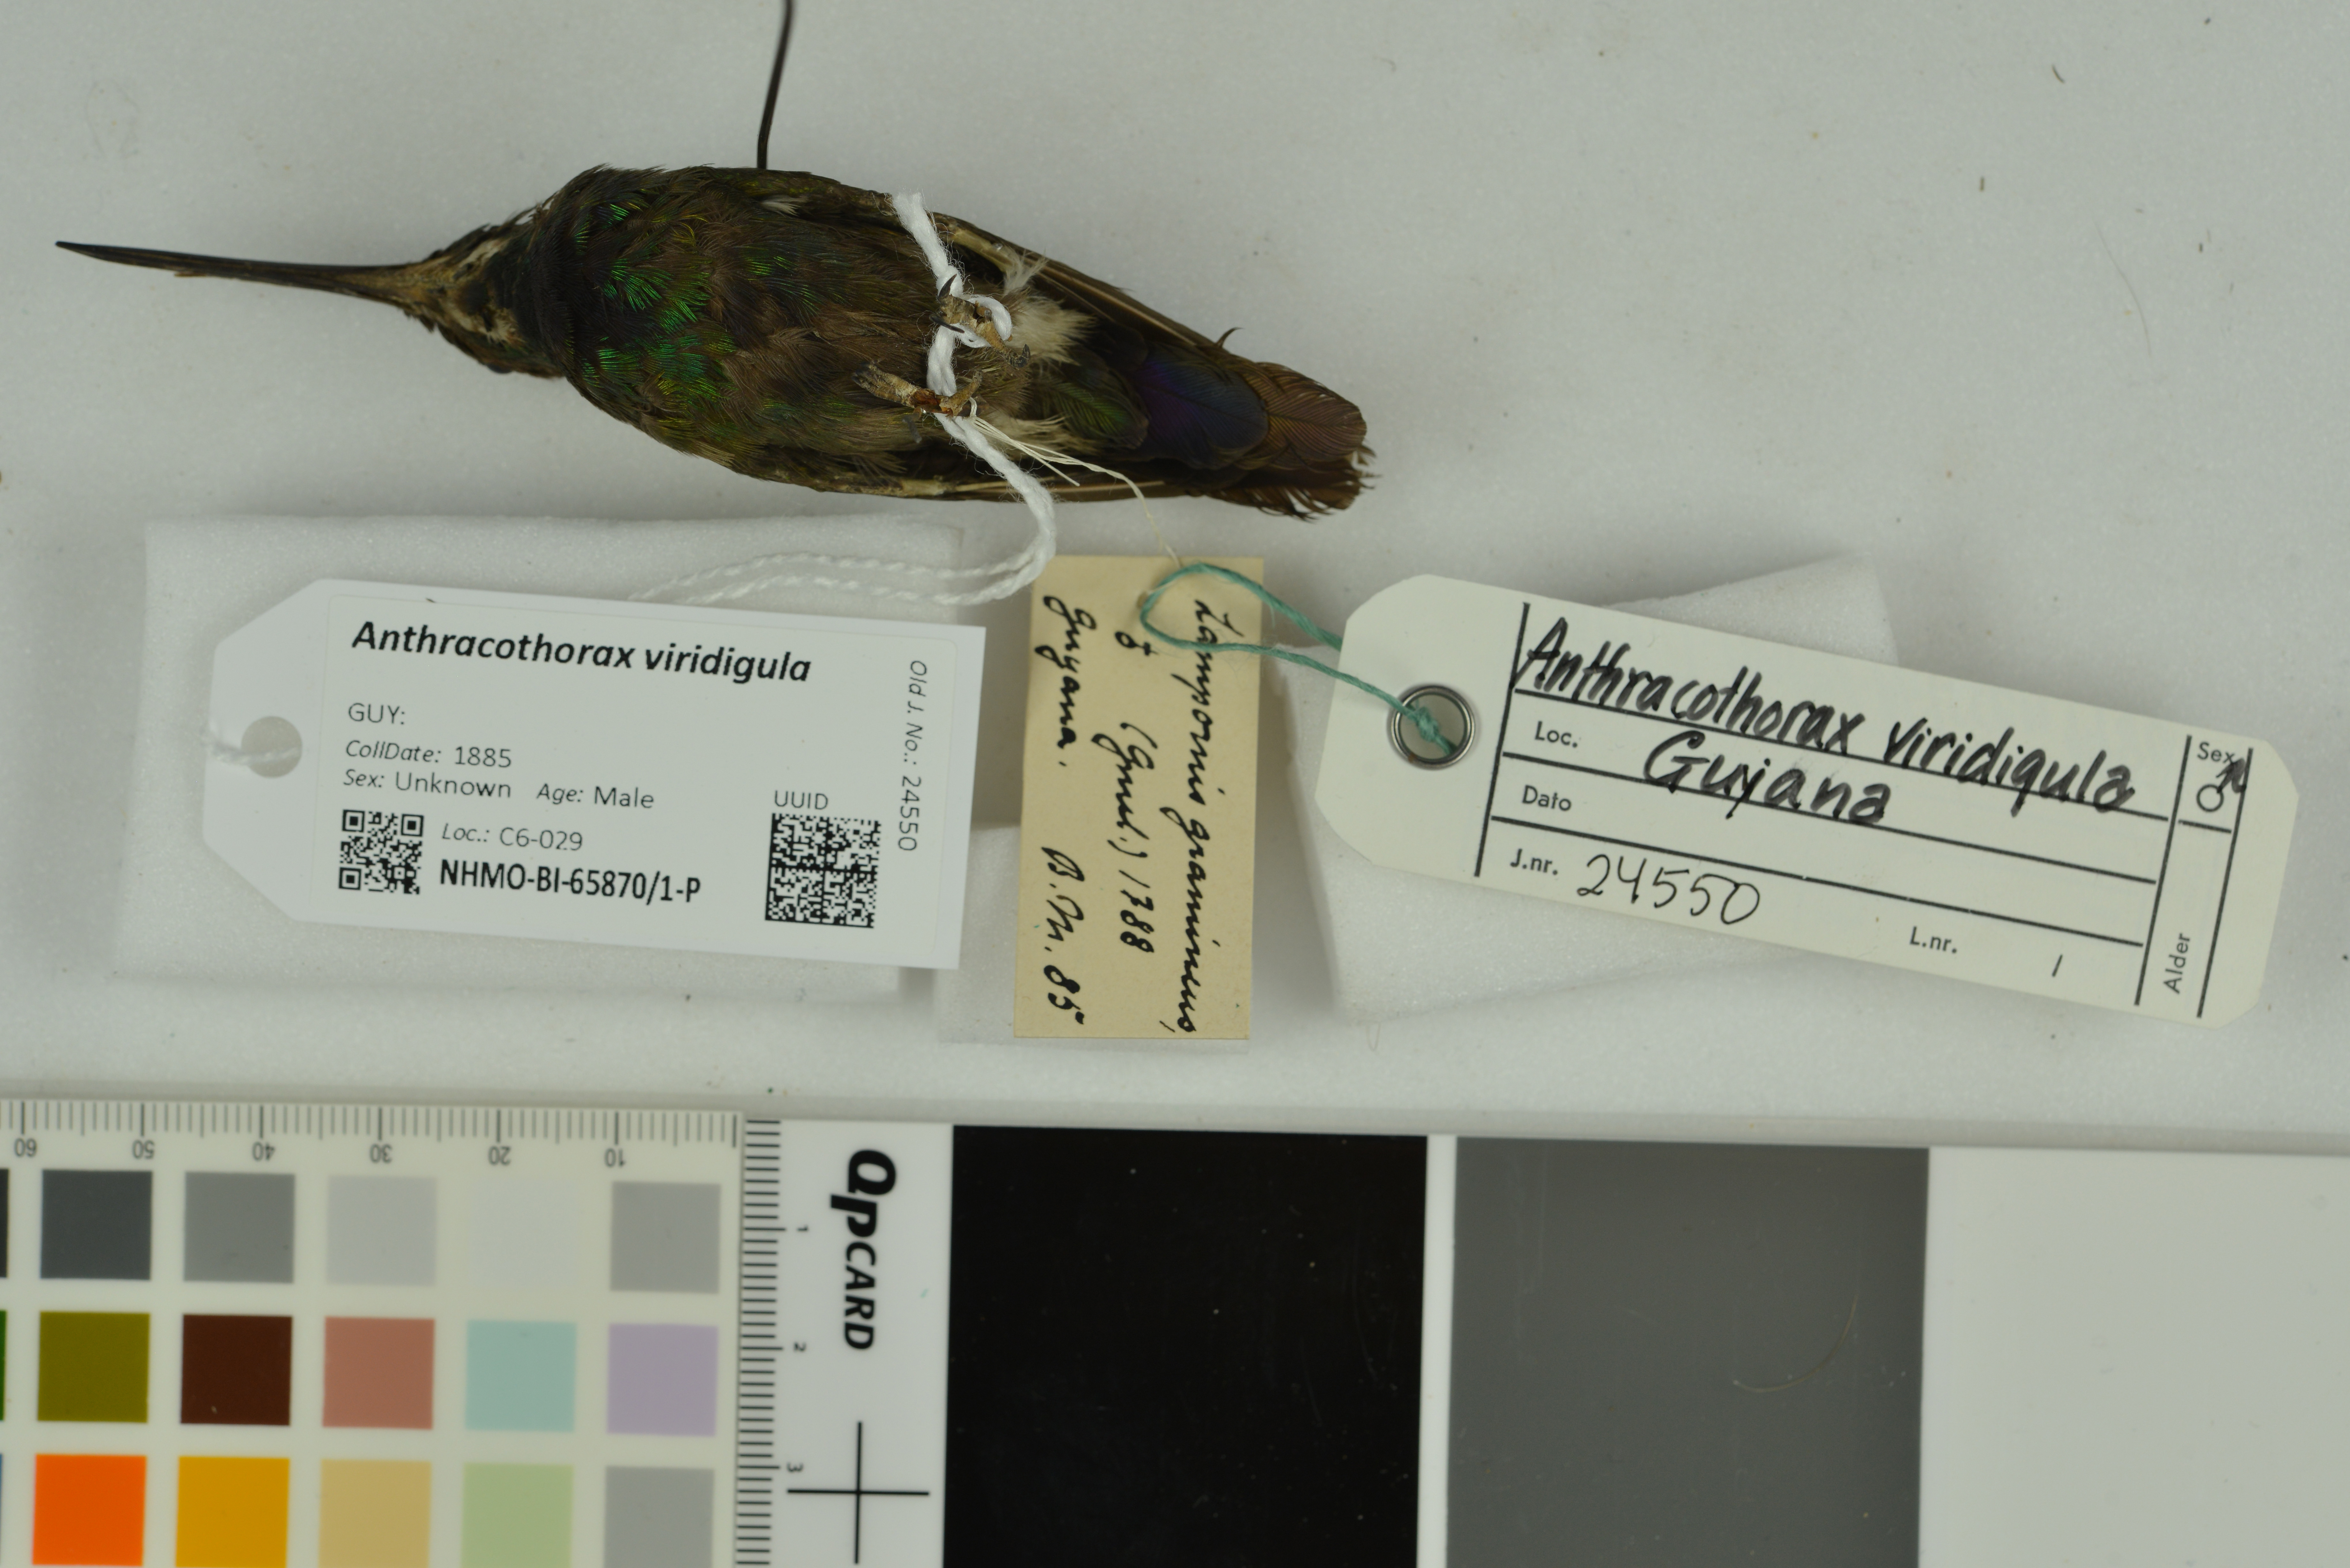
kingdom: Animalia
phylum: Chordata
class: Aves
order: Apodiformes
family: Trochilidae
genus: Anthracothorax
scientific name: Anthracothorax viridigula
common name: Green-throated mango
